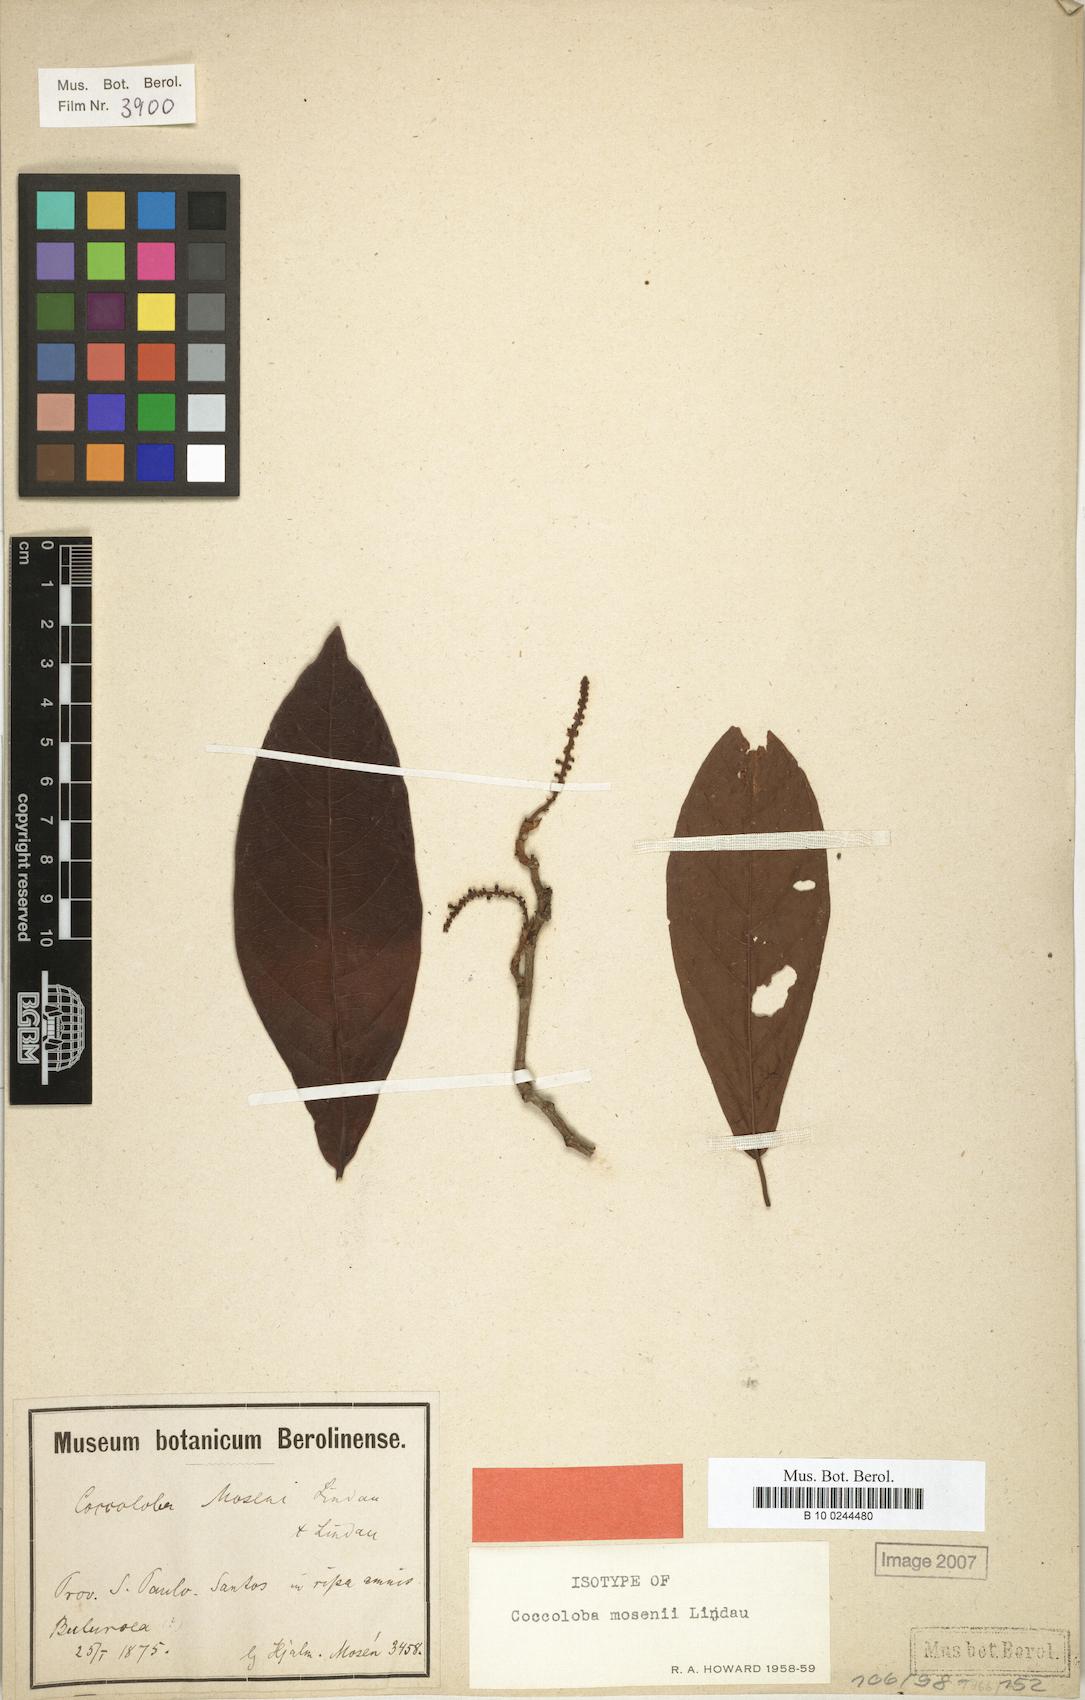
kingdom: Plantae
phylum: Tracheophyta
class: Magnoliopsida
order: Caryophyllales
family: Polygonaceae
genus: Coccoloba
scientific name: Coccoloba mosenii
